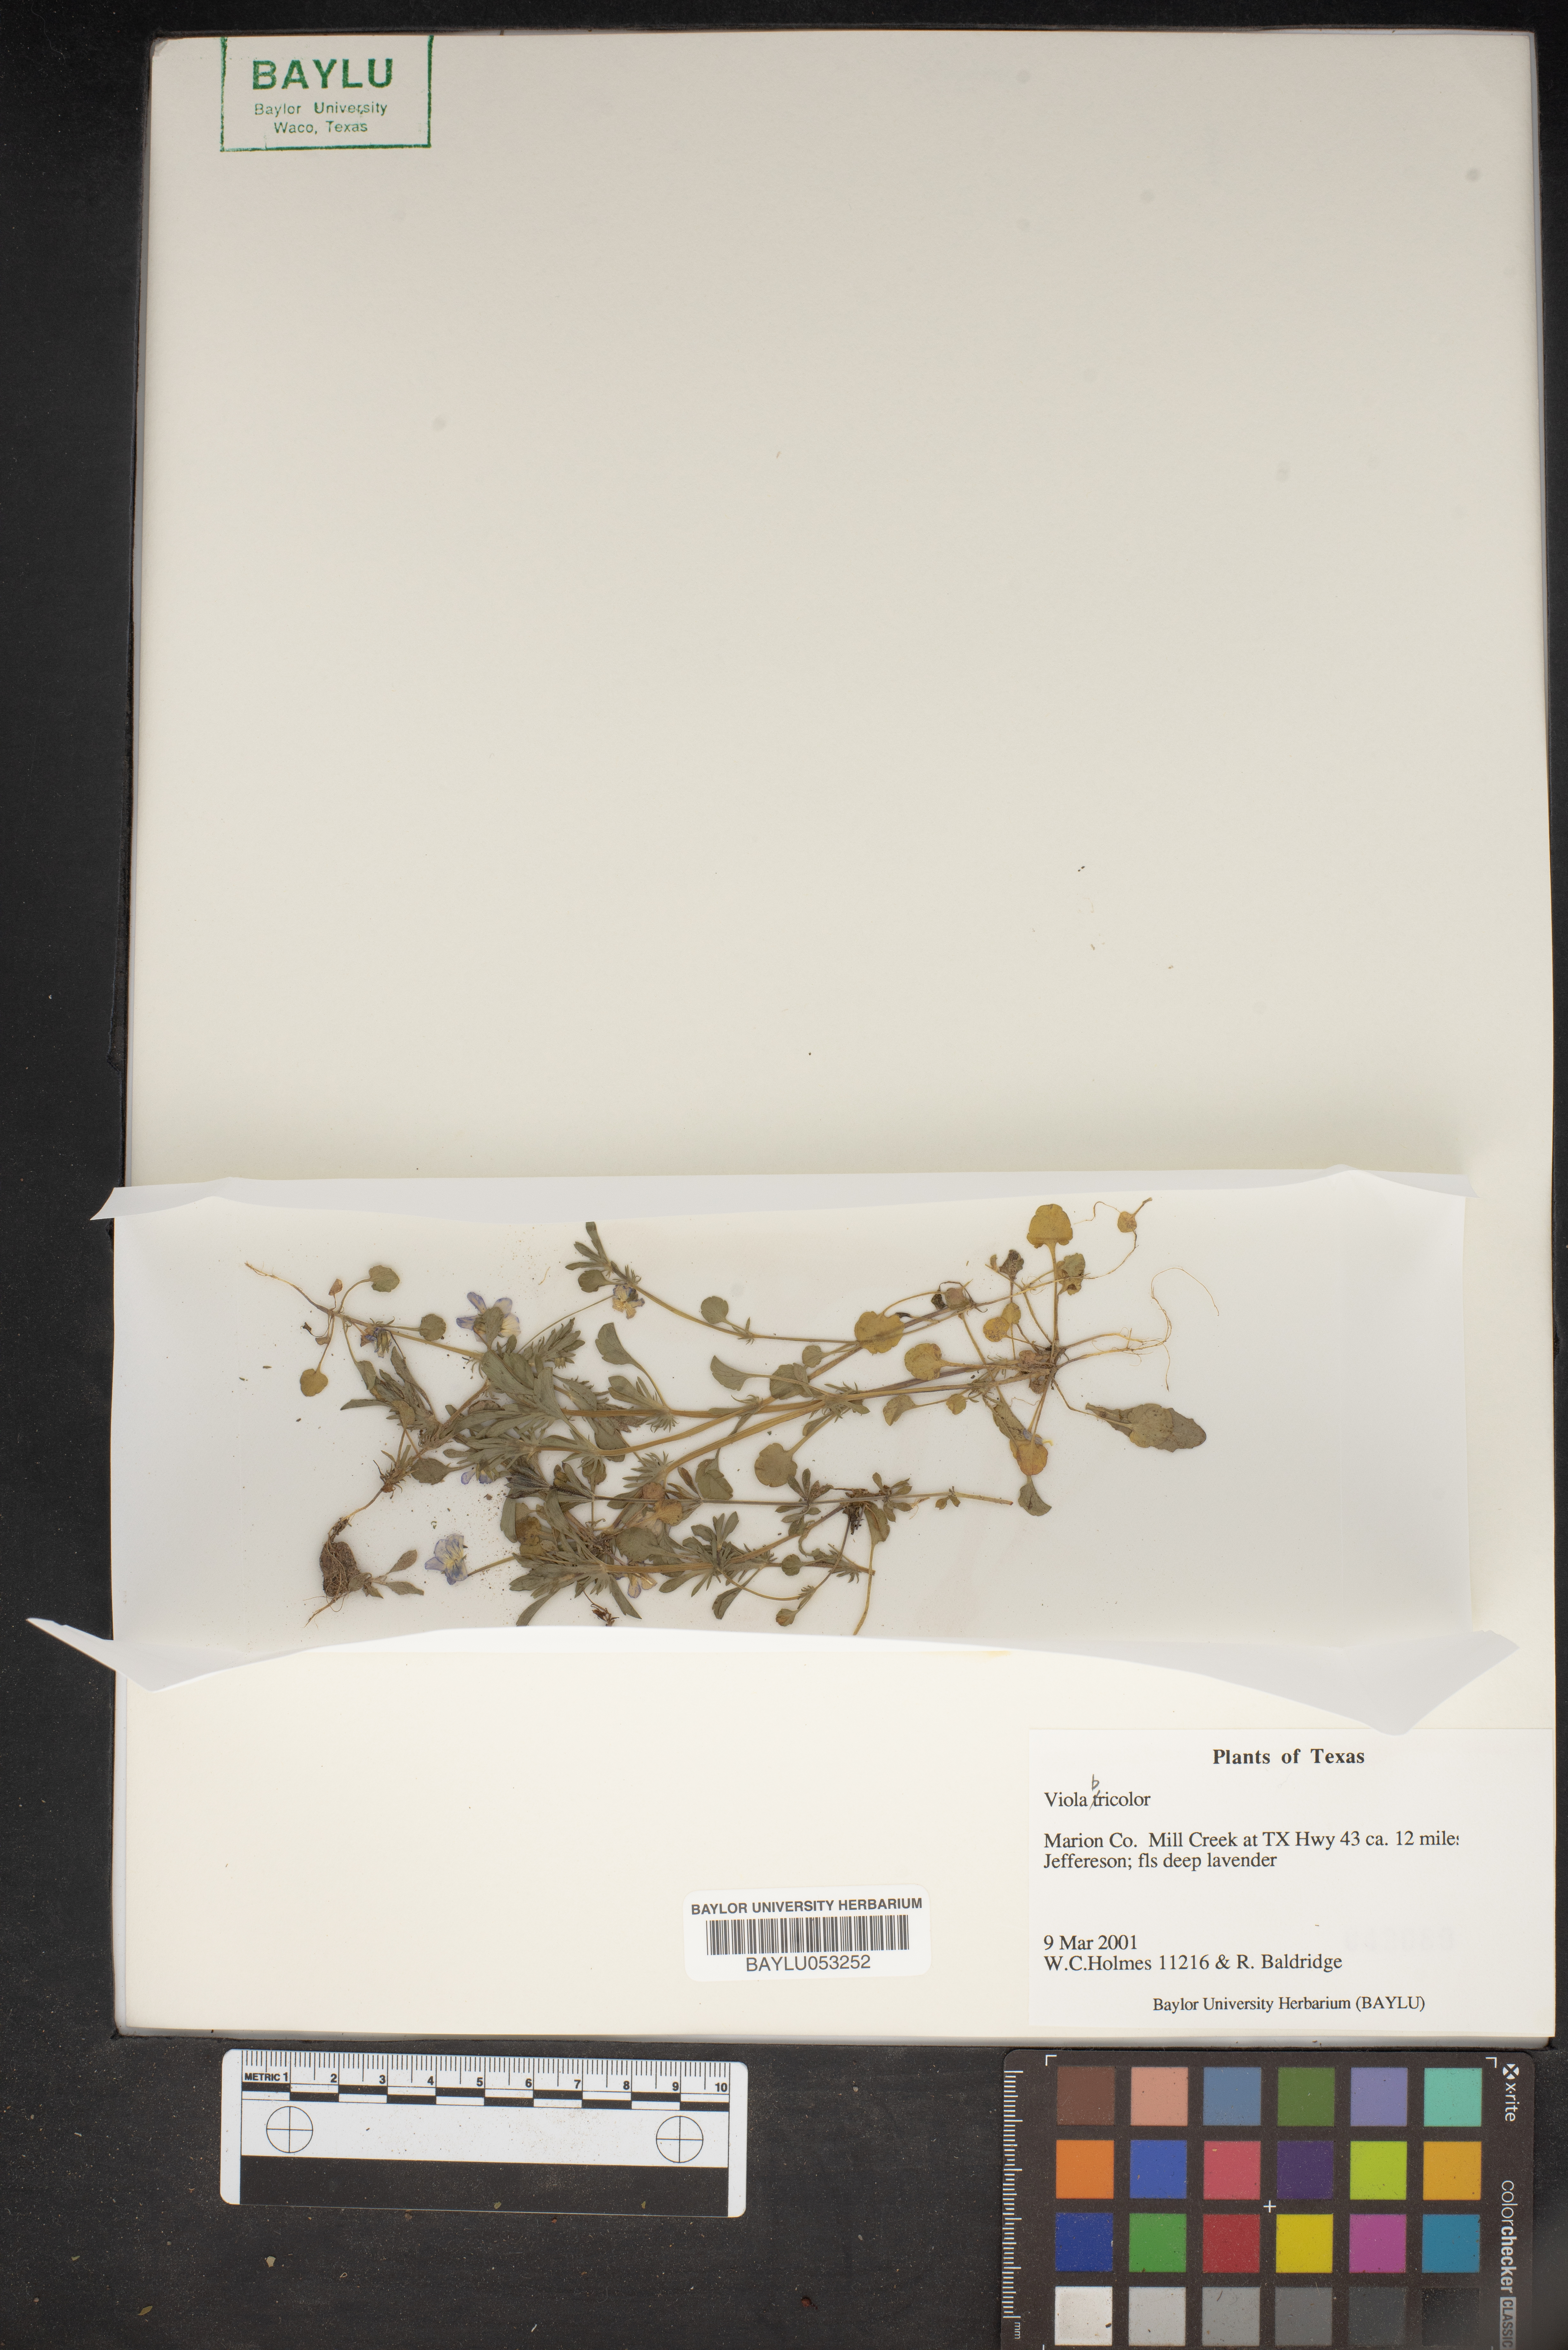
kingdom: Plantae
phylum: Tracheophyta
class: Magnoliopsida
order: Malpighiales
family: Violaceae
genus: Viola
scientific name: Viola rafinesquei
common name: American field pansy
